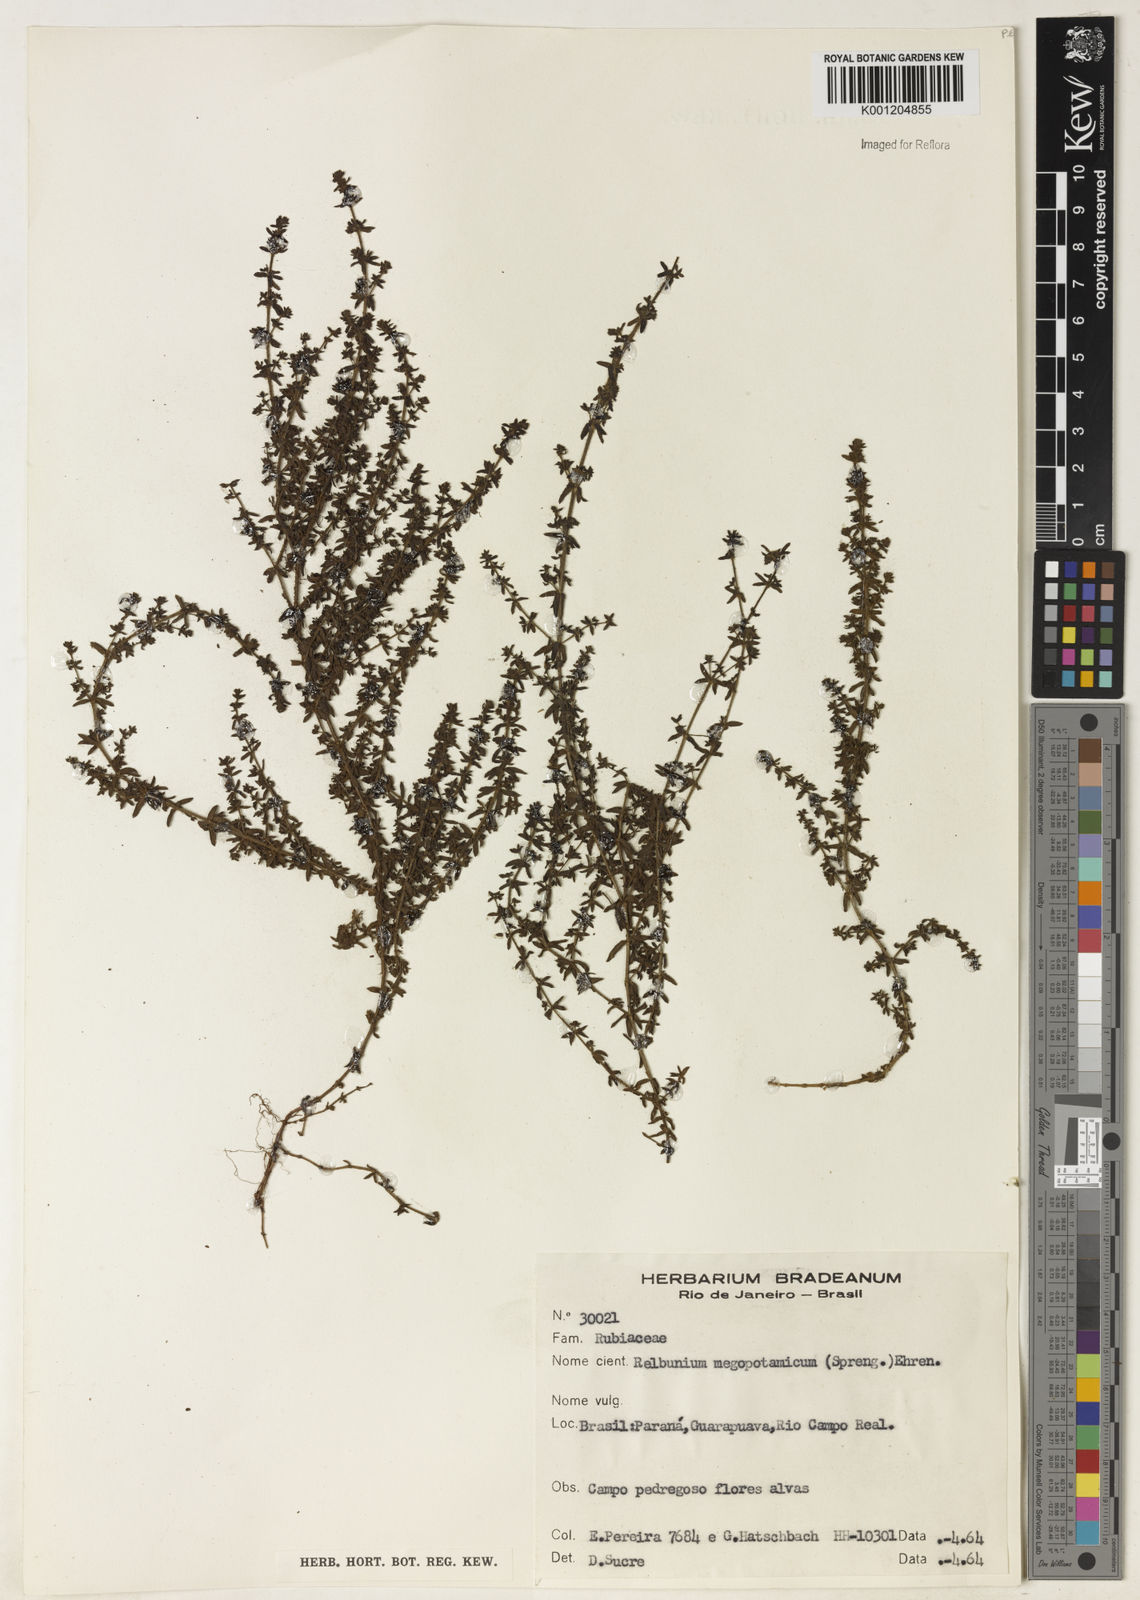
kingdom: Plantae
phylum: Tracheophyta
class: Magnoliopsida
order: Gentianales
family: Rubiaceae
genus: Galium
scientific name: Galium megapotamicum
